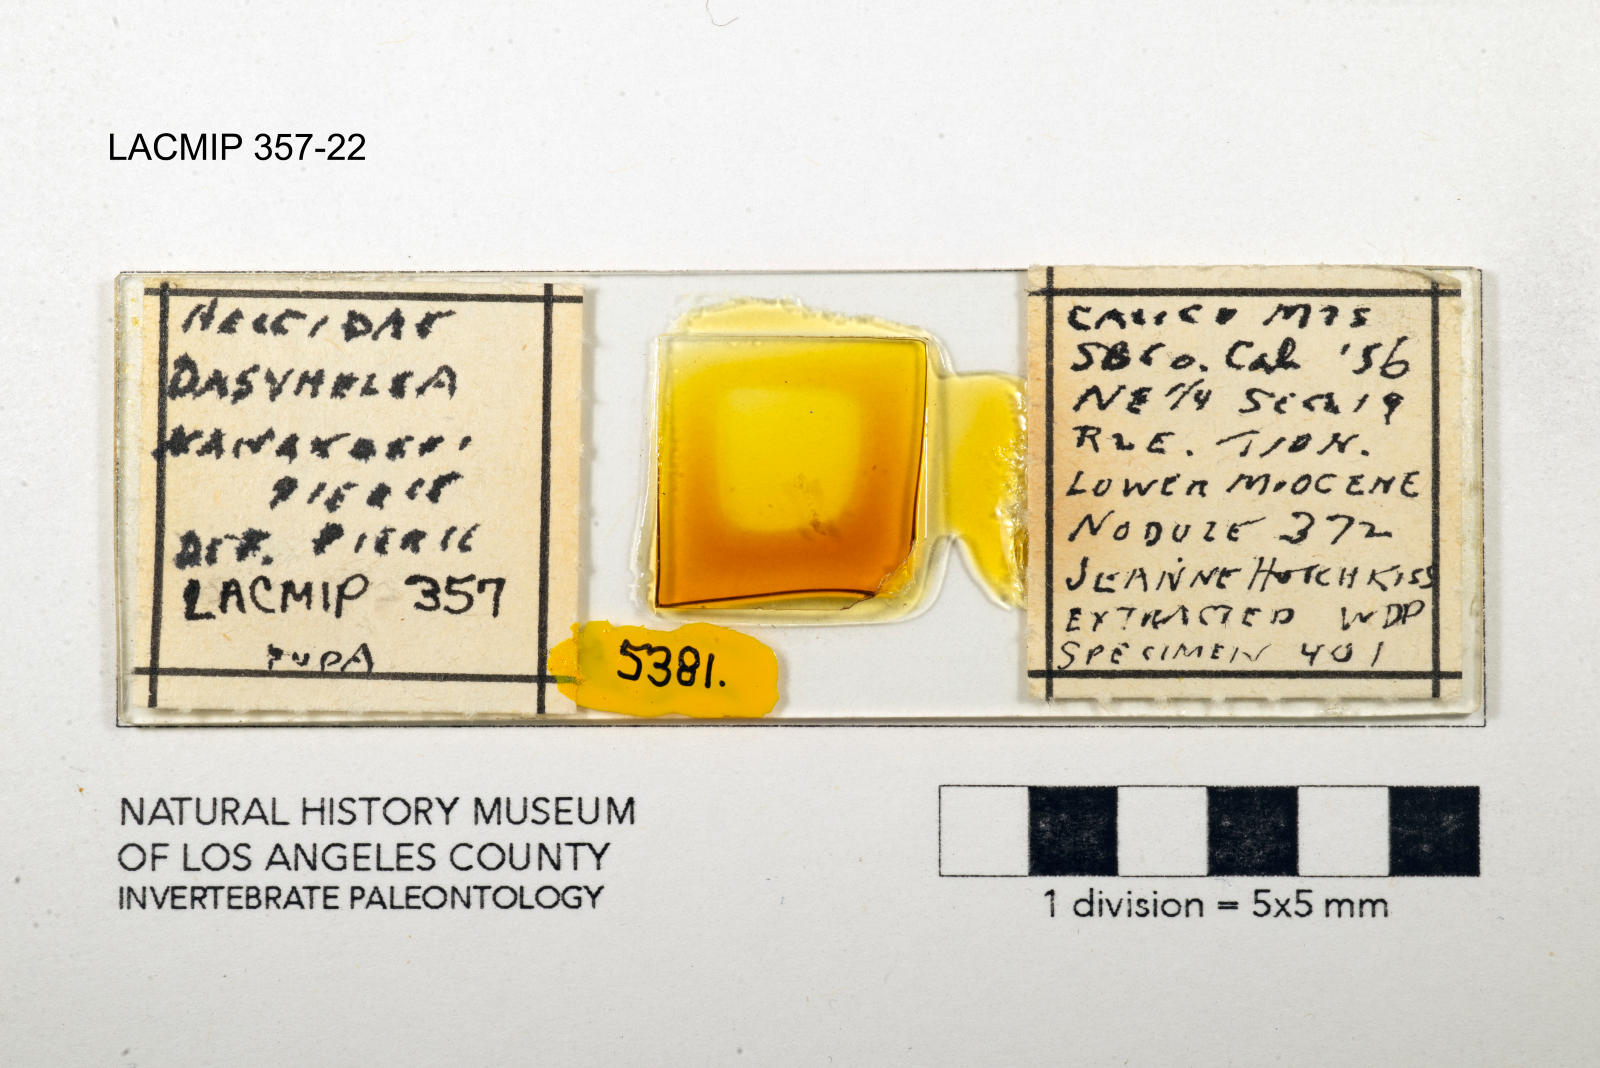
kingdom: Animalia
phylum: Arthropoda
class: Insecta
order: Diptera
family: Ceratopogonidae
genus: Dasyhelea
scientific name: Dasyhelea kanakoffi
